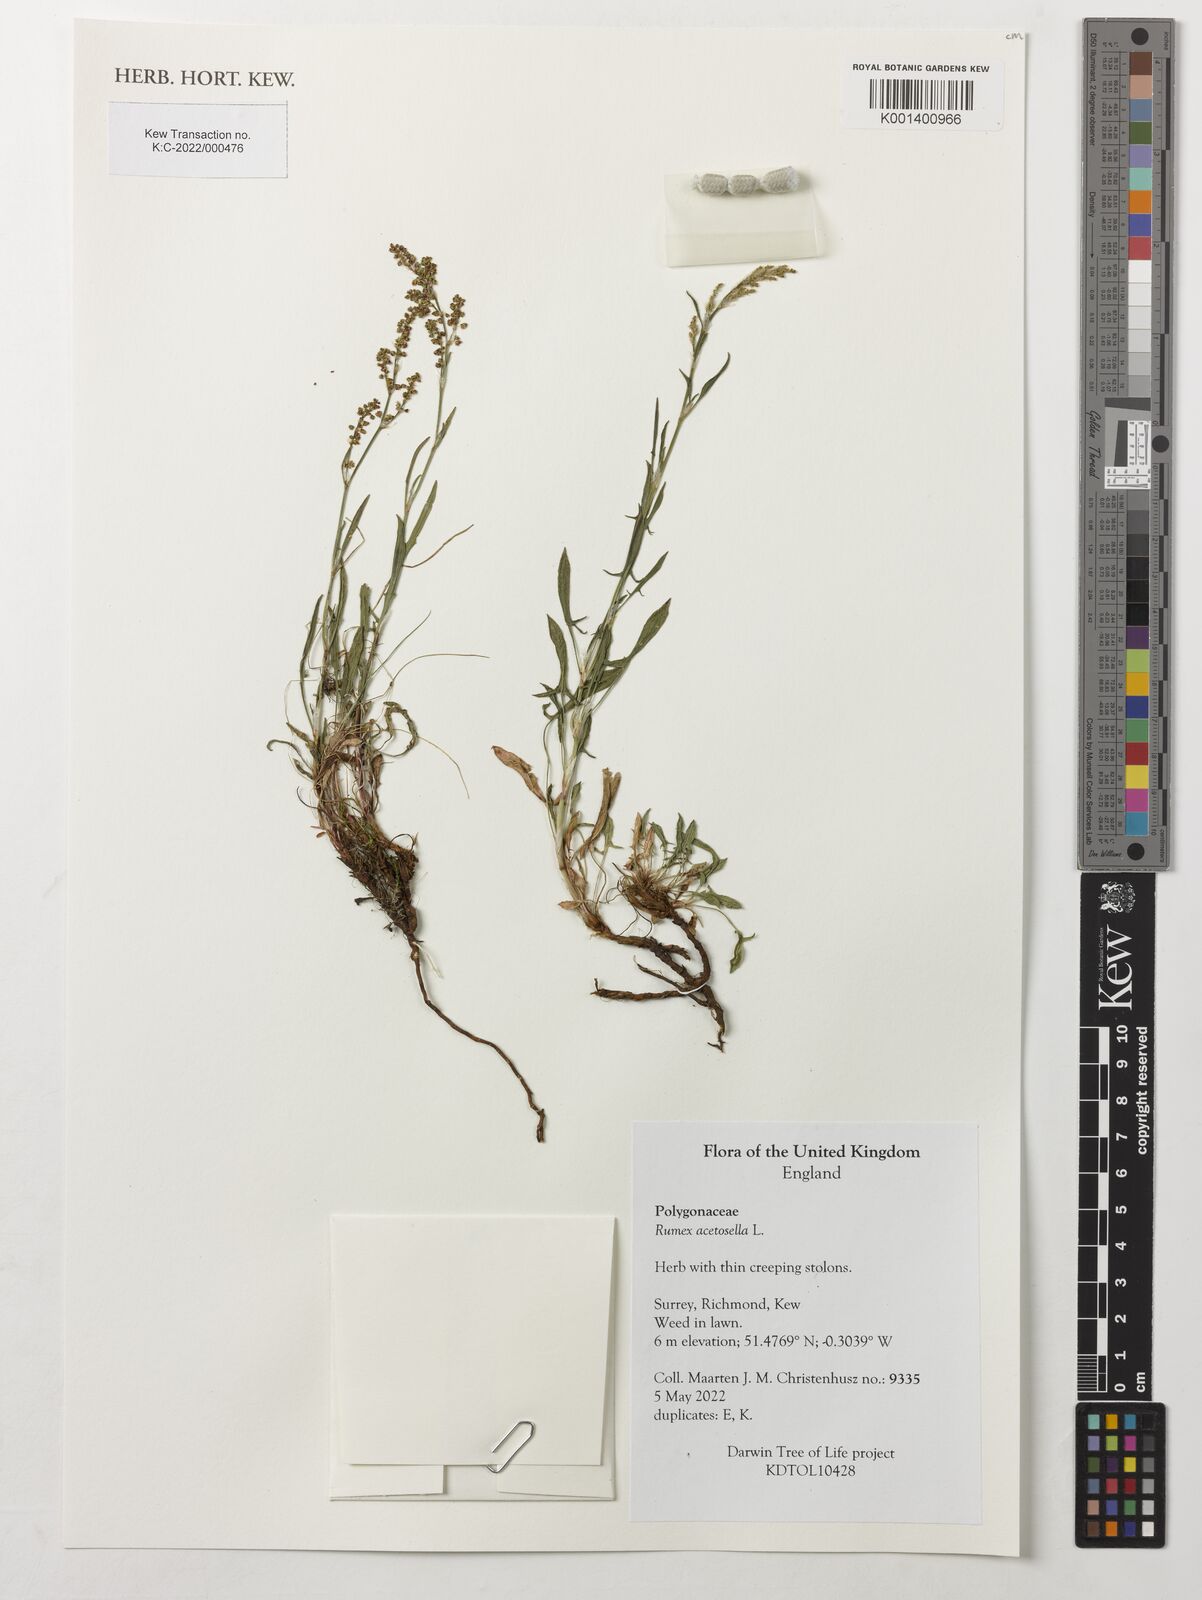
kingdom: Plantae
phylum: Tracheophyta
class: Magnoliopsida
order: Caryophyllales
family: Polygonaceae
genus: Rumex
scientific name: Rumex acetosella
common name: Common sheep sorrel
